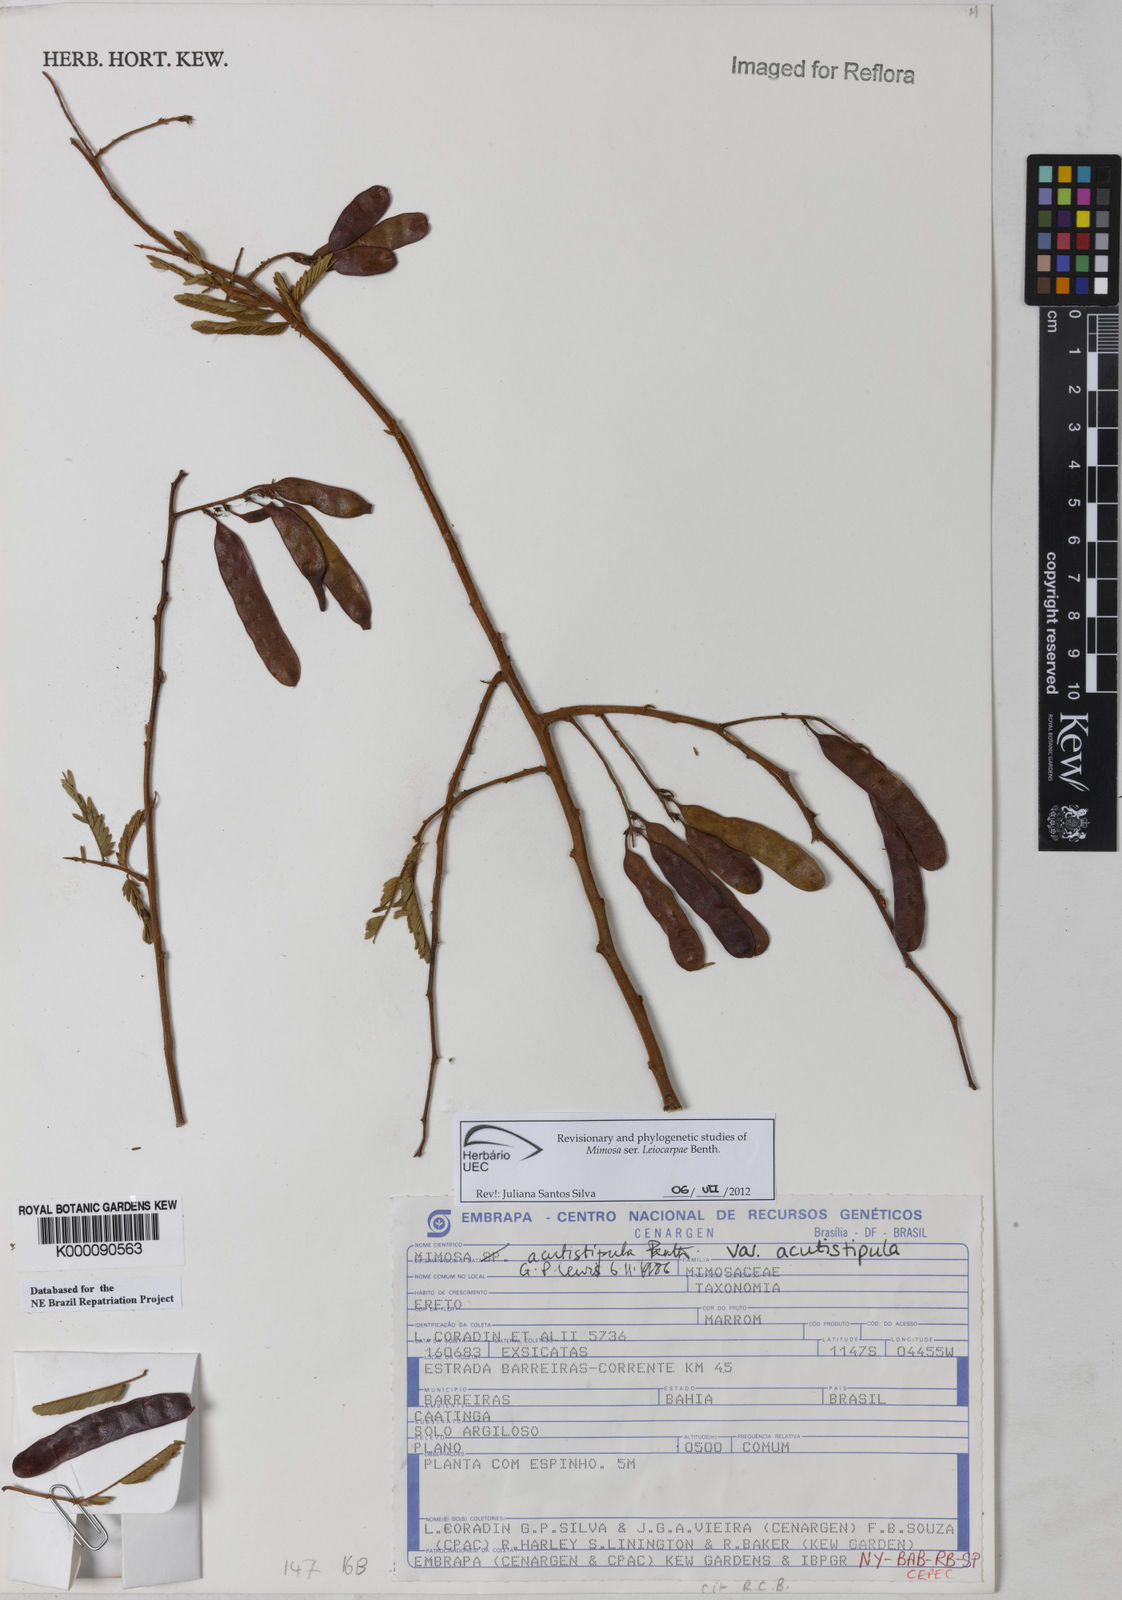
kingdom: Plantae
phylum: Tracheophyta
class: Magnoliopsida
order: Fabales
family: Fabaceae
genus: Mimosa
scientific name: Mimosa acutistipula
